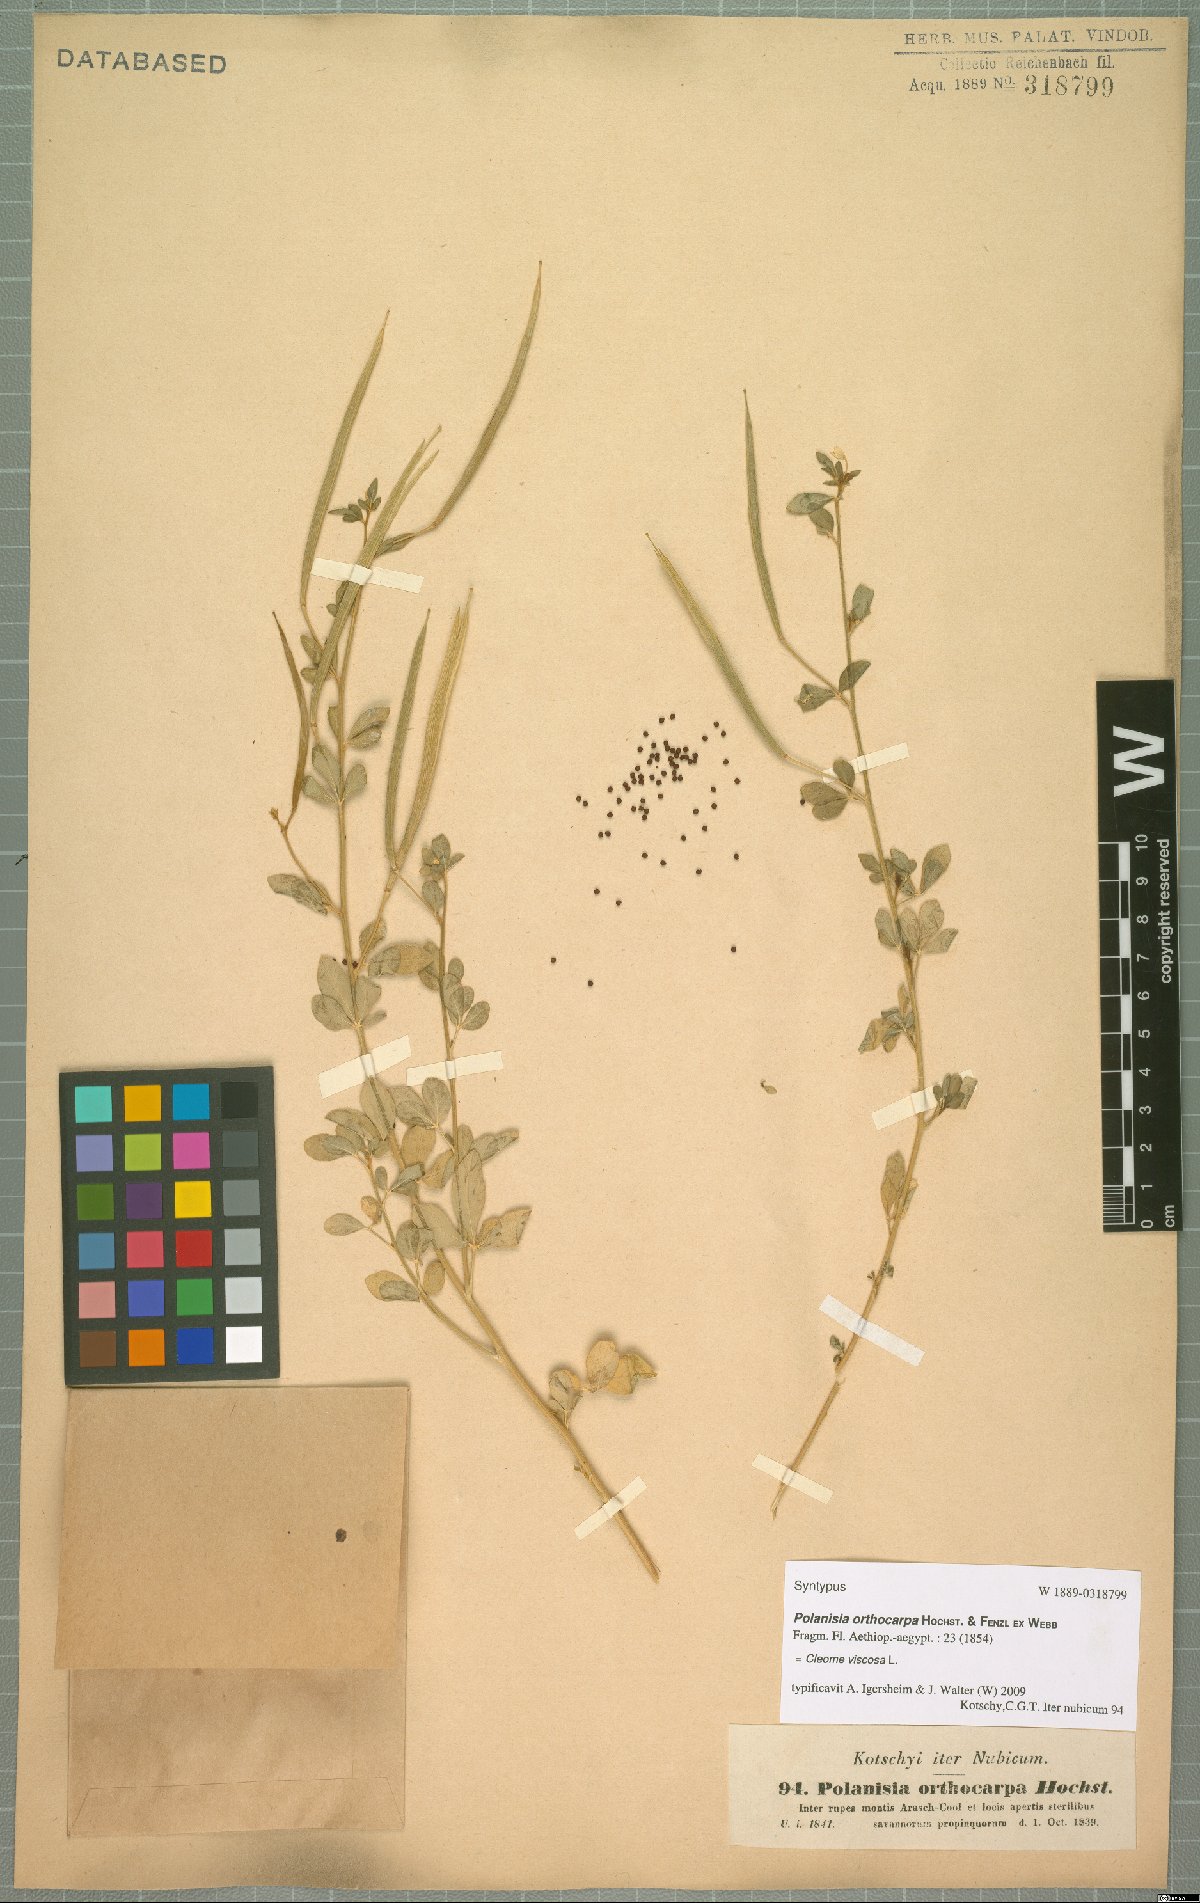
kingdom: Plantae
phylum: Tracheophyta
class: Magnoliopsida
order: Brassicales
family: Cleomaceae
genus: Arivela
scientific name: Arivela viscosa
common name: Asian spiderflower
